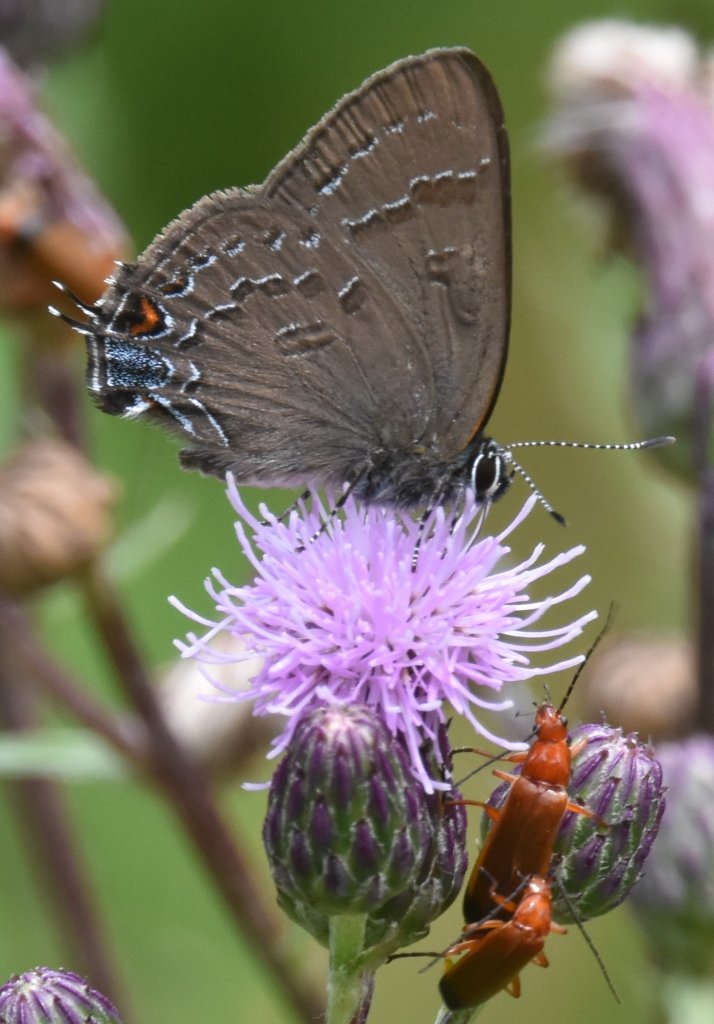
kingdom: Animalia
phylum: Arthropoda
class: Insecta
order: Lepidoptera
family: Lycaenidae
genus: Satyrium
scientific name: Satyrium calanus
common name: Banded Hairstreak
